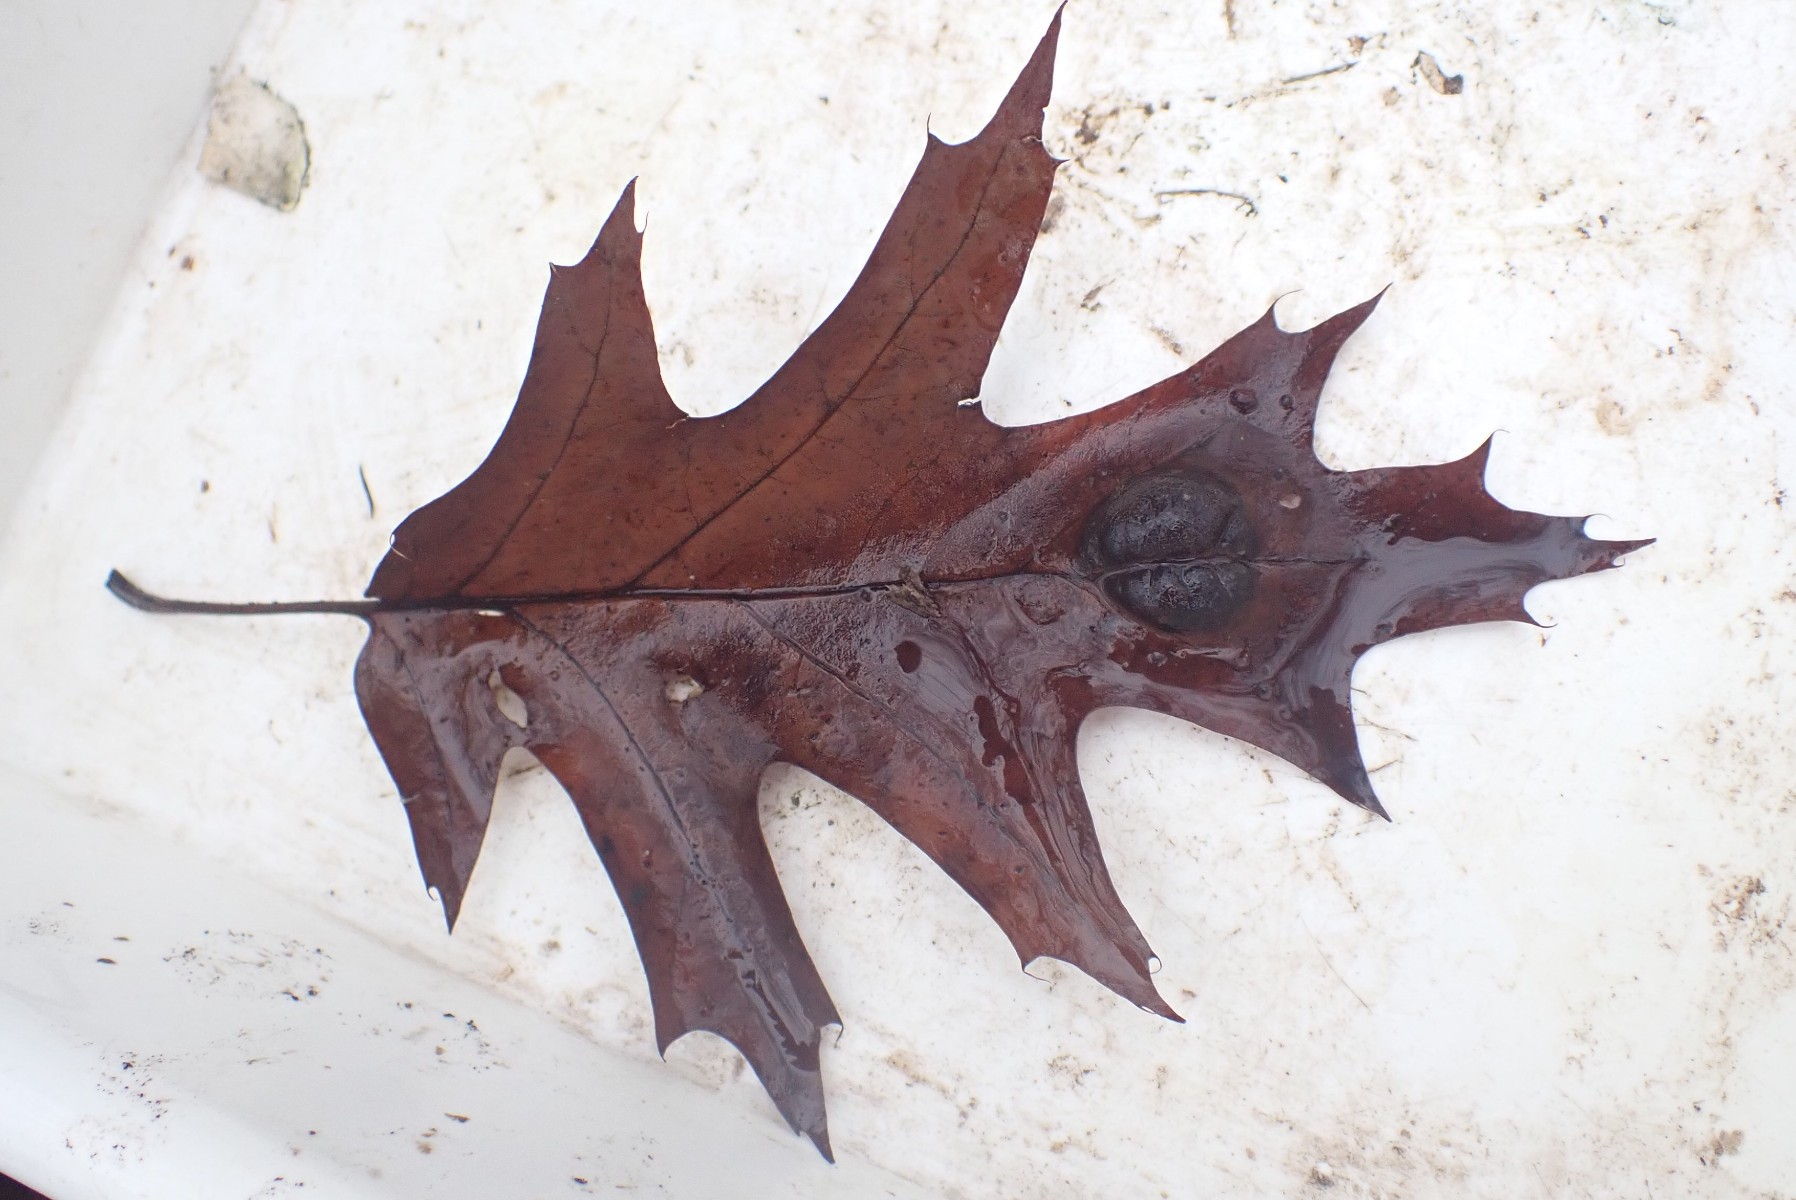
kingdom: Fungi
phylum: Ascomycota
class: Taphrinomycetes
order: Taphrinales
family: Taphrinaceae
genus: Taphrina
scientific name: Taphrina caerulescens
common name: Oak leaf blister
